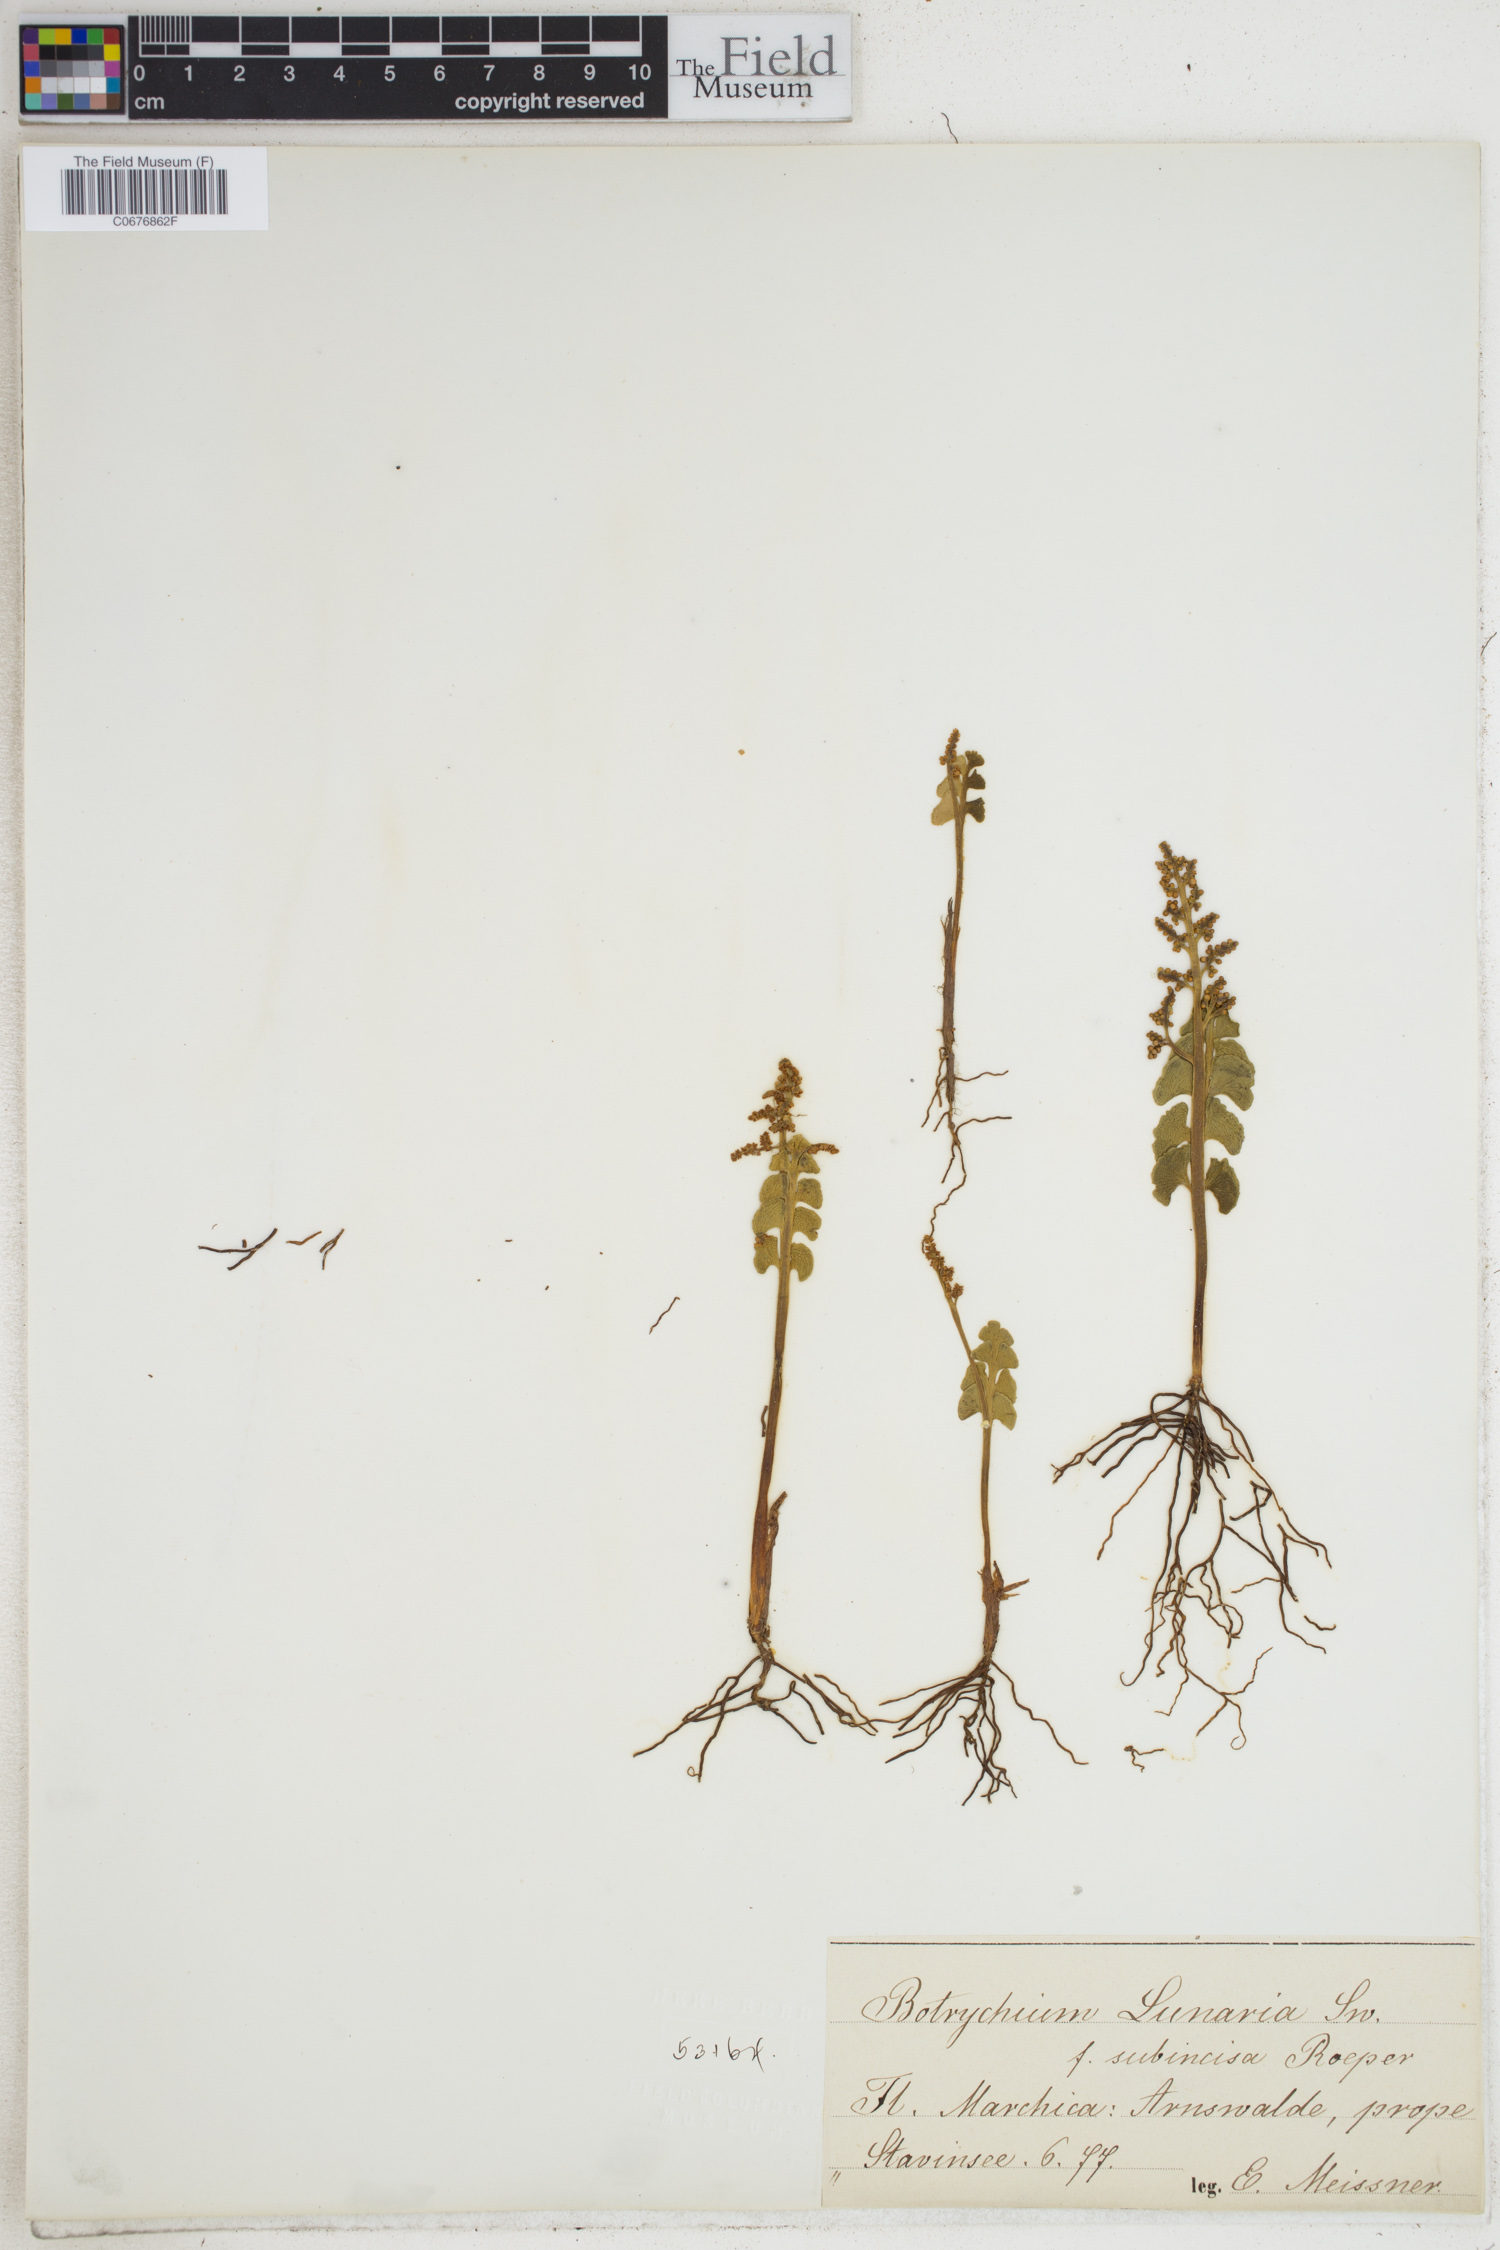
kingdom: Plantae
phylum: Tracheophyta
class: Polypodiopsida
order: Ophioglossales
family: Ophioglossaceae
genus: Botrychium
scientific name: Botrychium lunaria
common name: Moonwort
